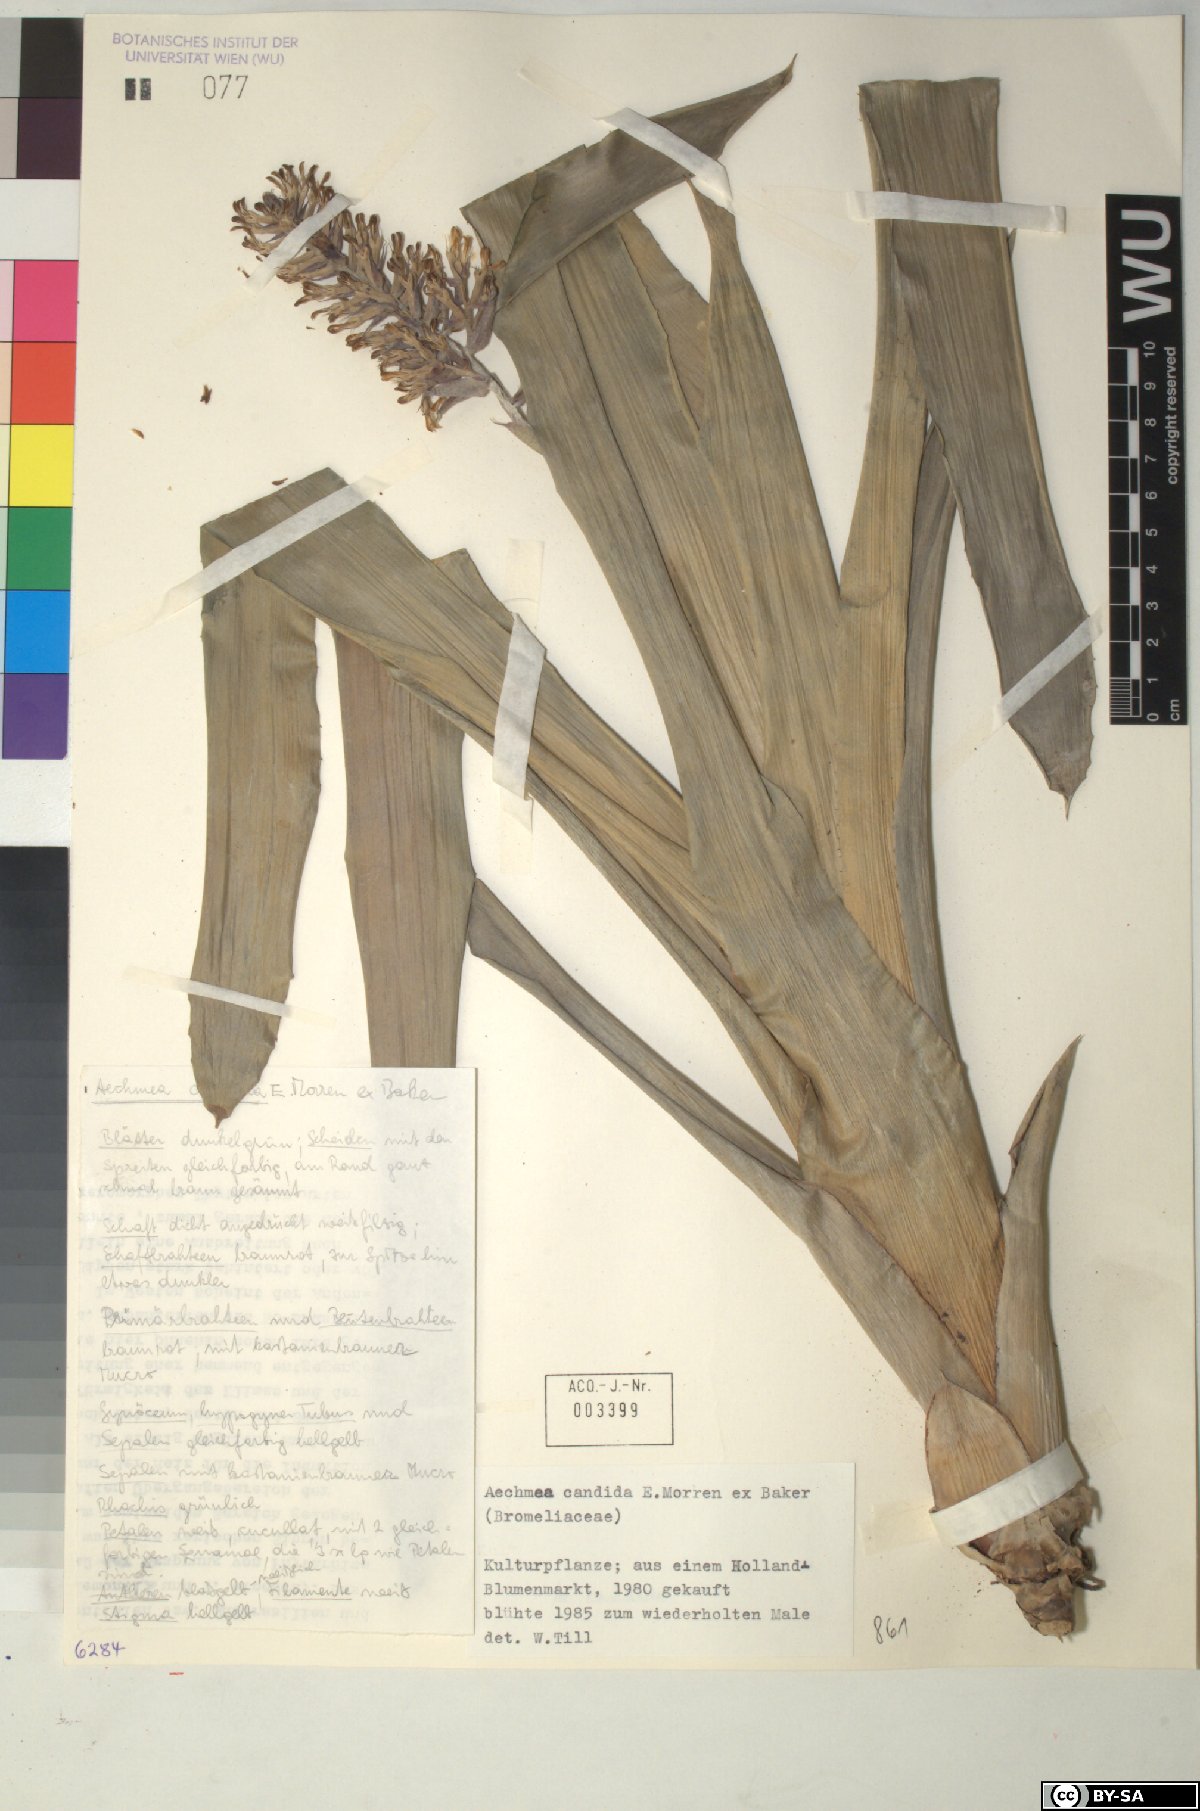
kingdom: Plantae
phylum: Tracheophyta
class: Liliopsida
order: Poales
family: Bromeliaceae
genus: Aechmea
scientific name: Aechmea candida
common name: White bromeliad
